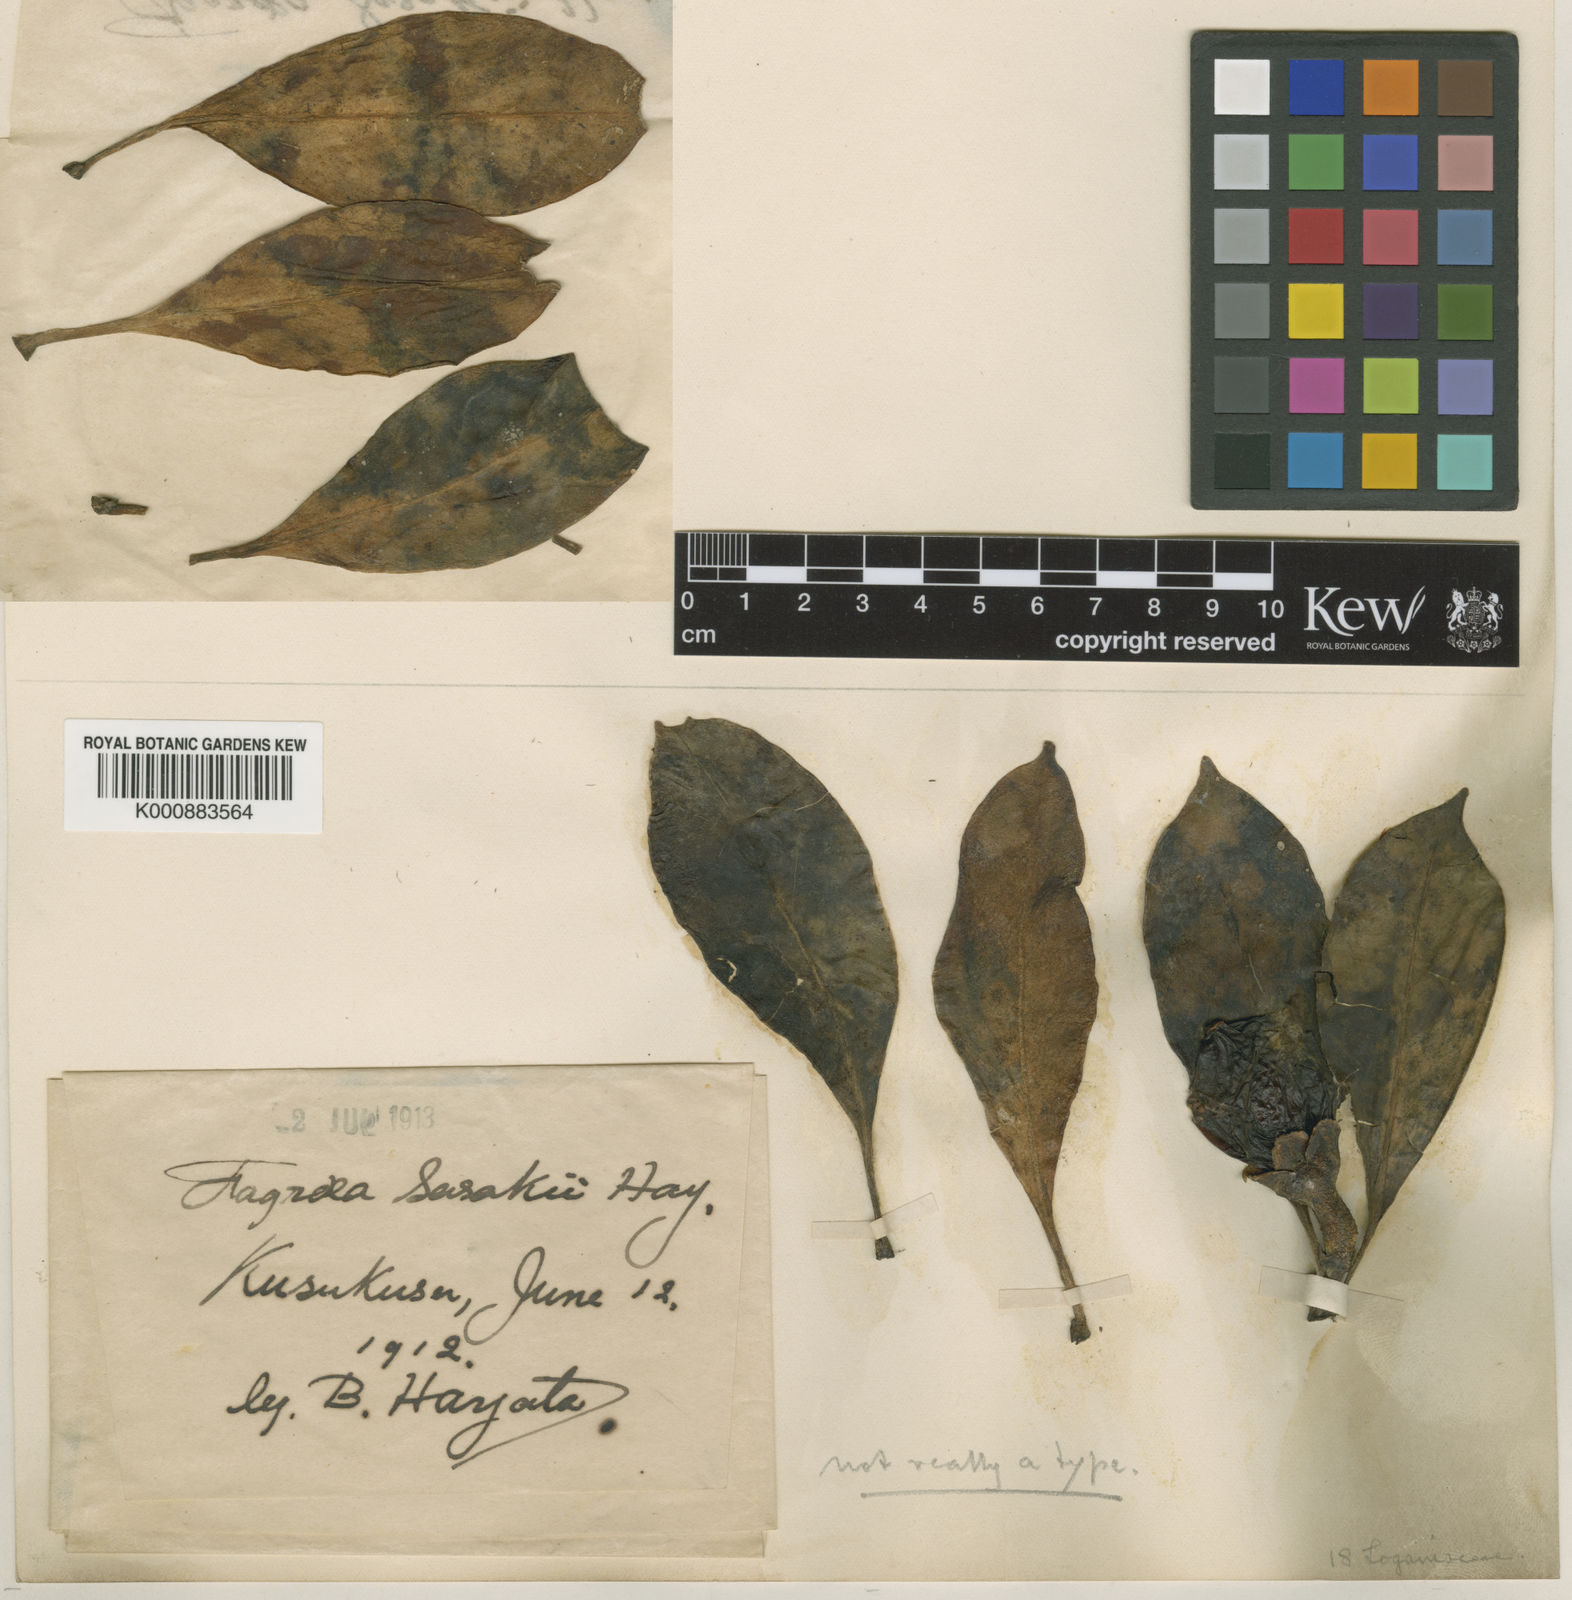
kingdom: Plantae
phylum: Tracheophyta
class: Magnoliopsida
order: Gentianales
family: Gentianaceae
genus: Fagraea
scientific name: Fagraea ceilanica
